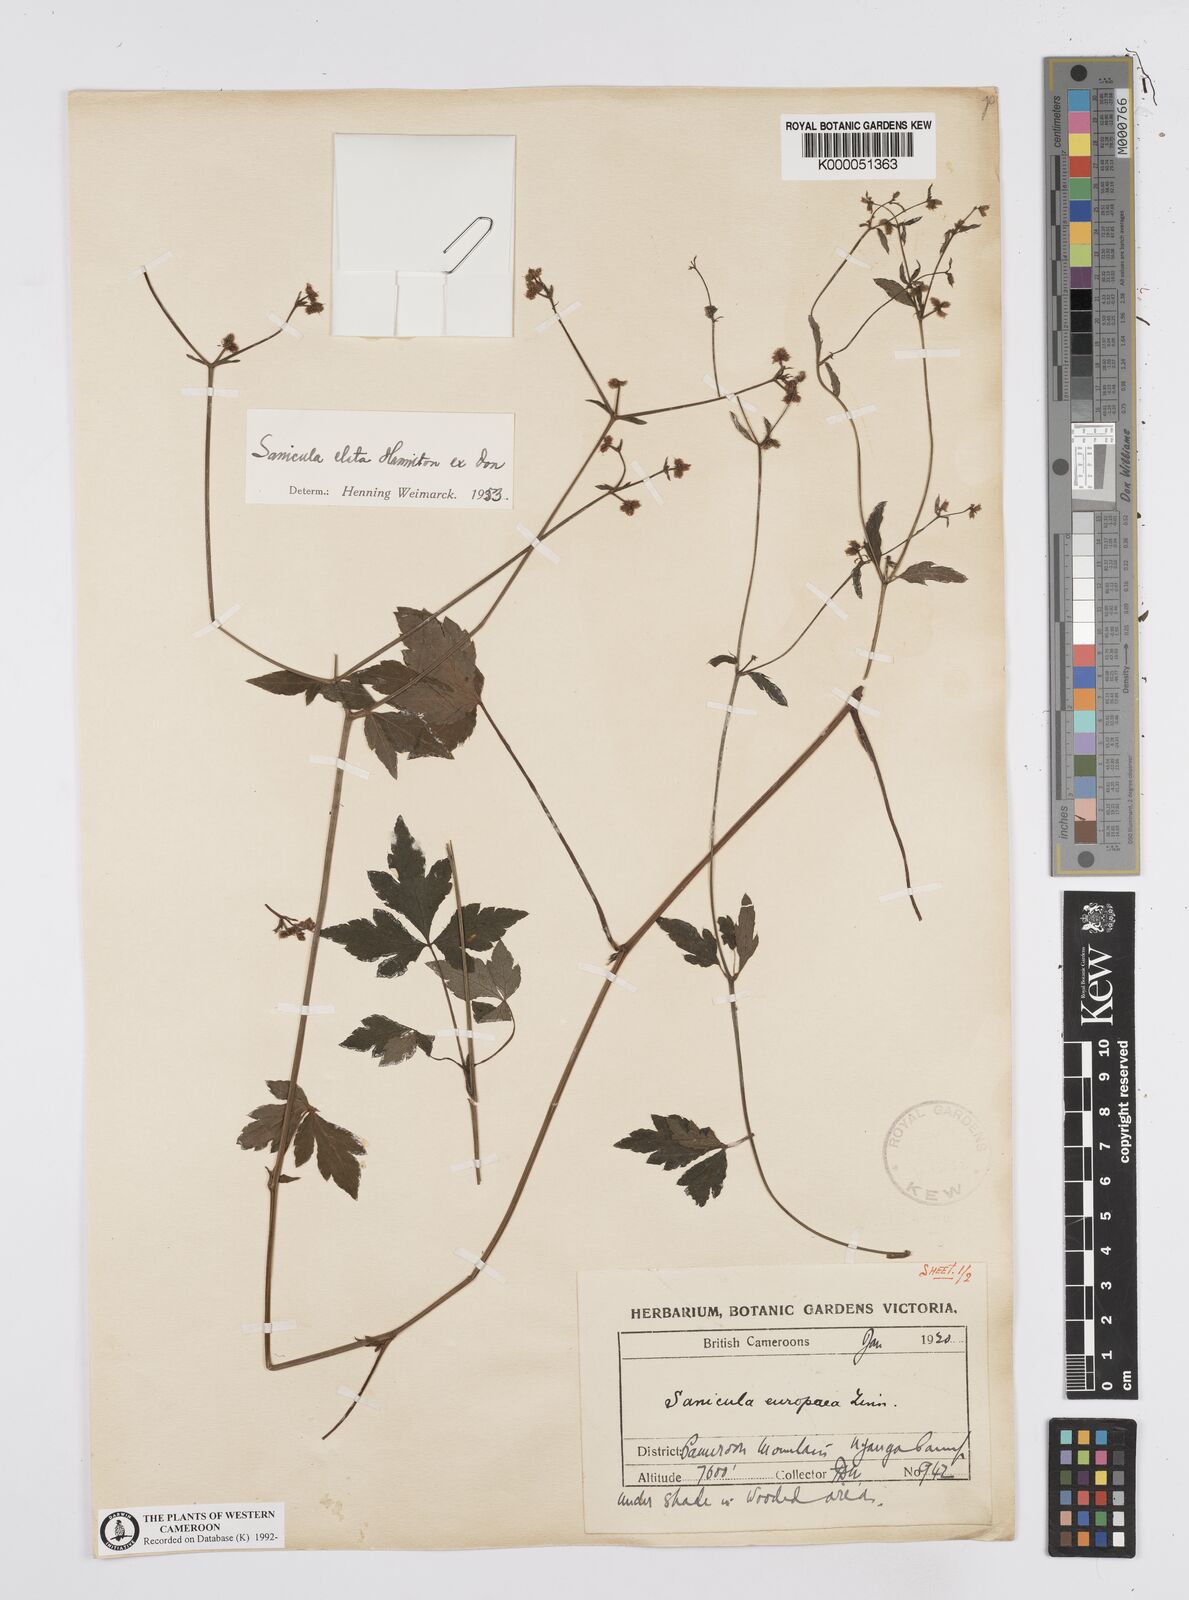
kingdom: Plantae
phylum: Tracheophyta
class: Magnoliopsida
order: Apiales
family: Apiaceae
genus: Sanicula
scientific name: Sanicula
